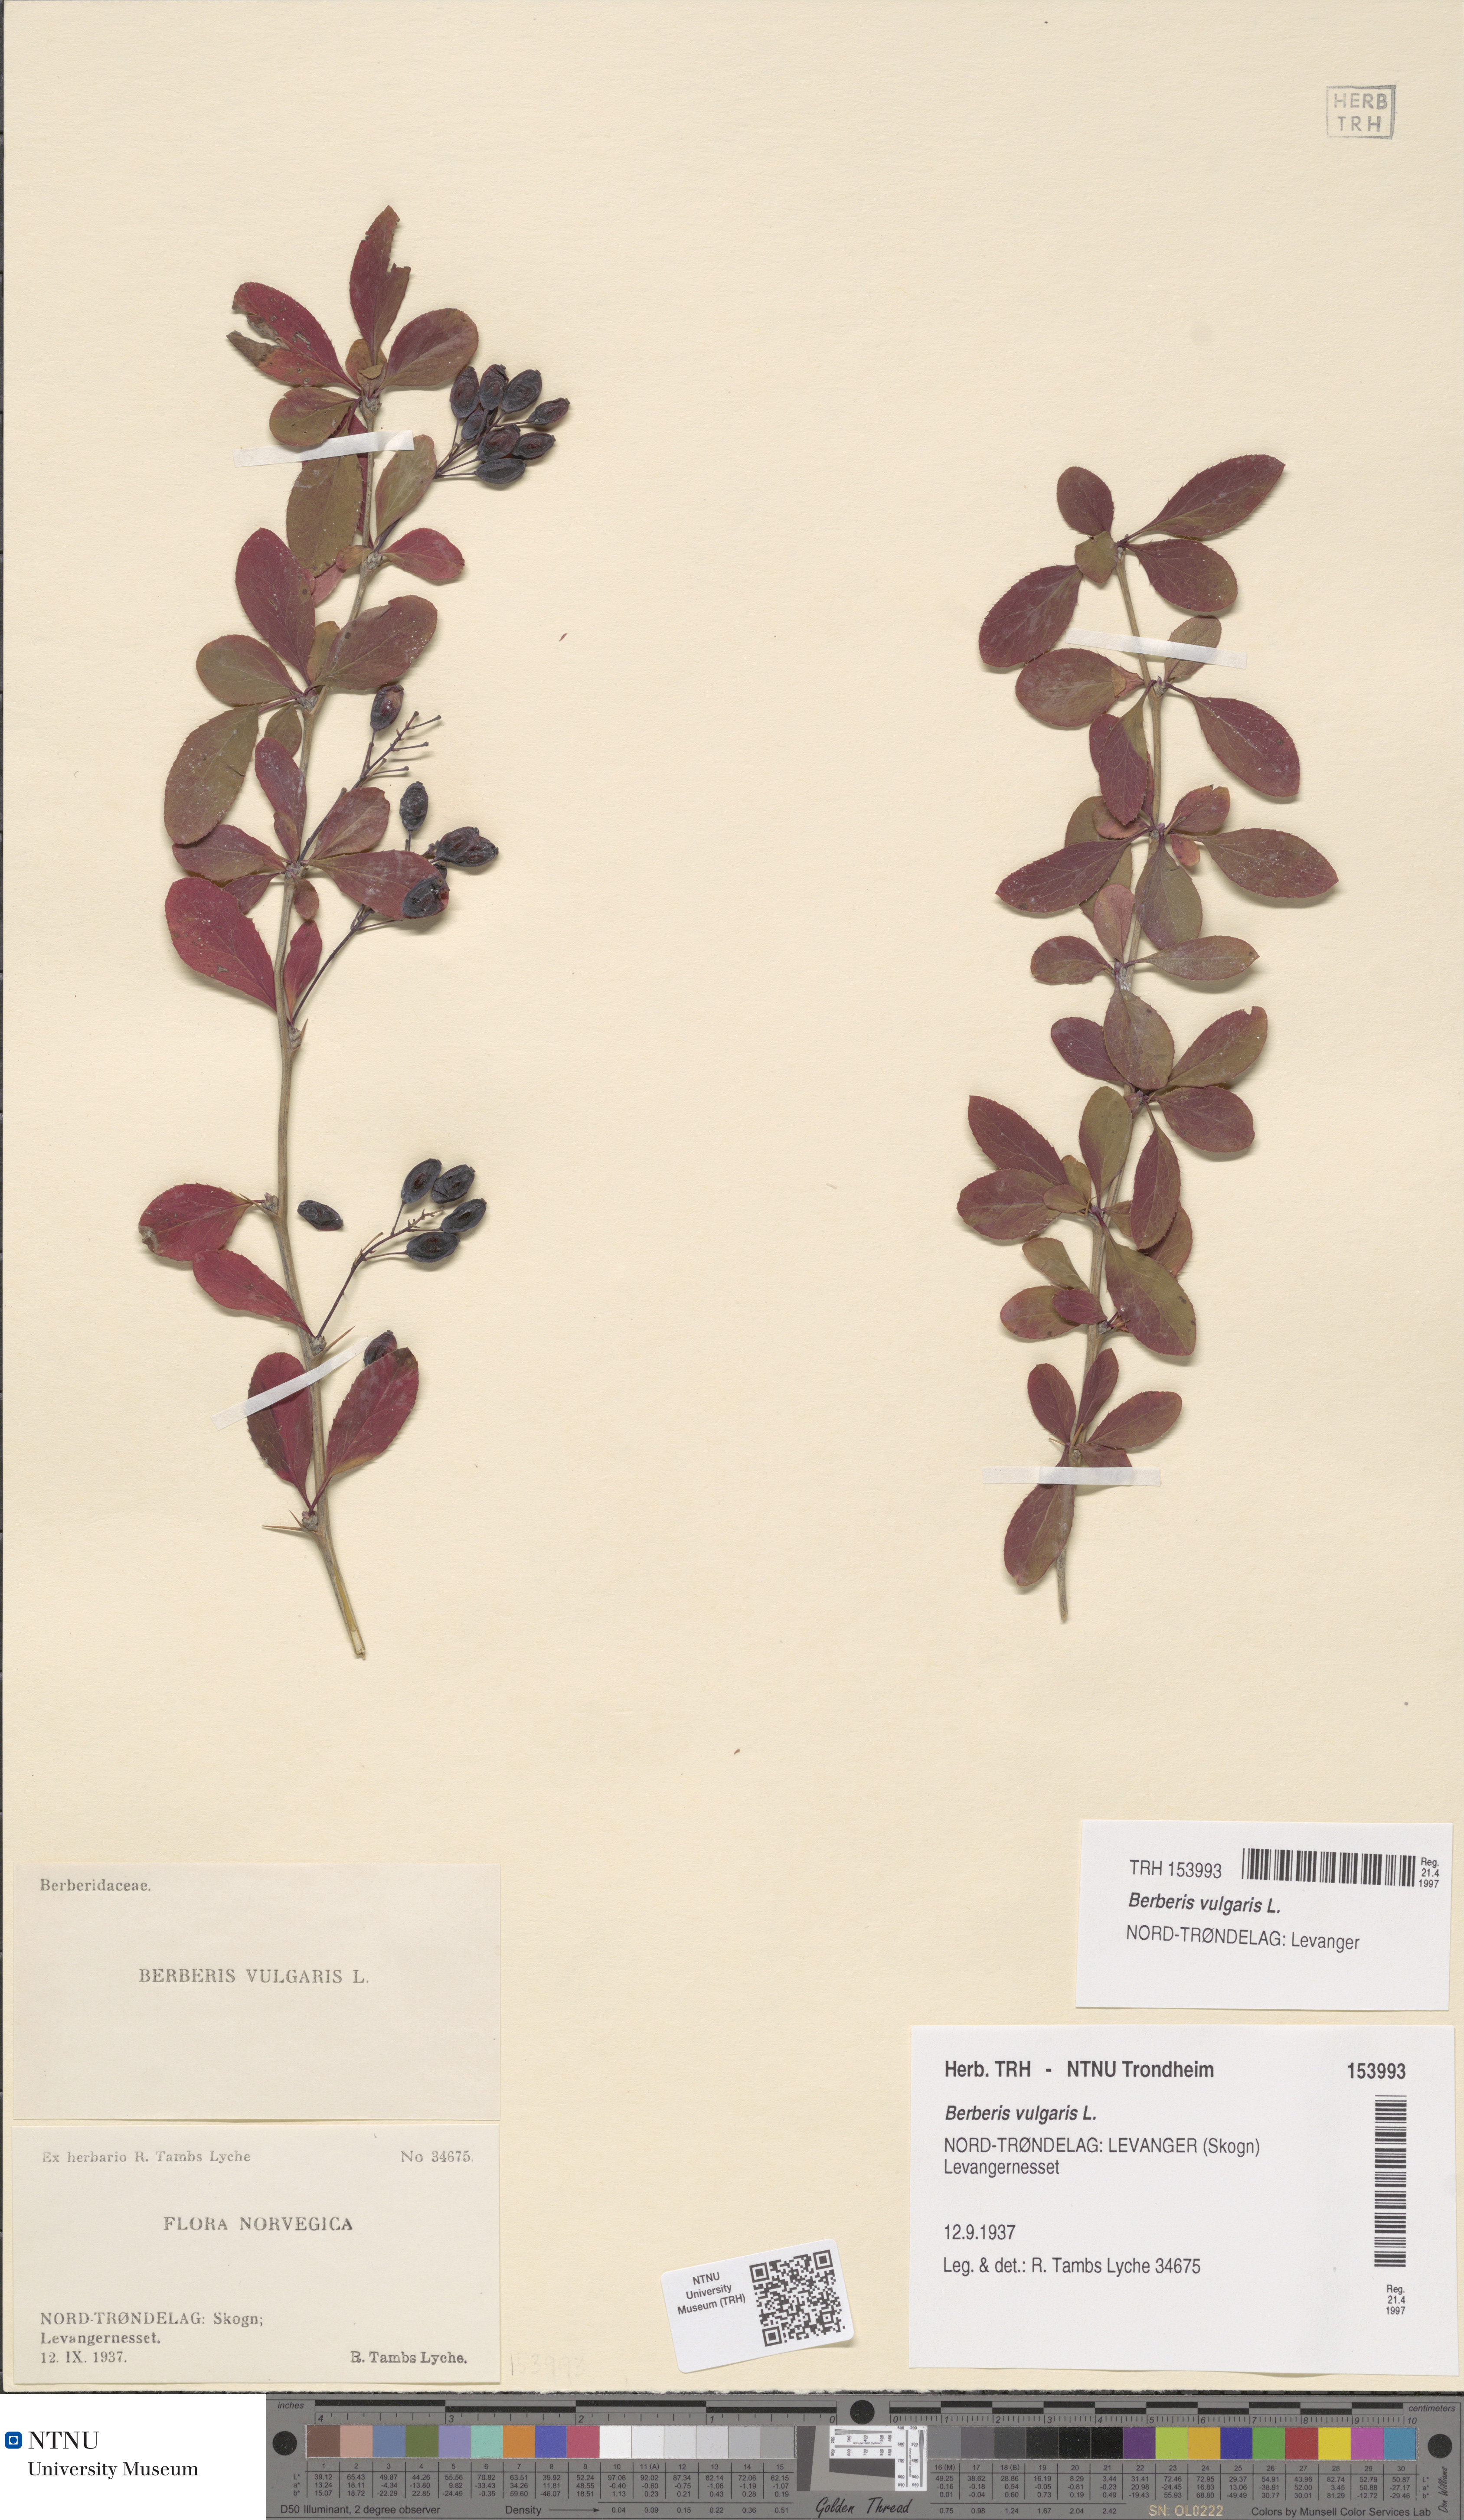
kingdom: Plantae
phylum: Tracheophyta
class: Magnoliopsida
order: Ranunculales
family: Berberidaceae
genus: Berberis
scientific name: Berberis vulgaris
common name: Barberry
